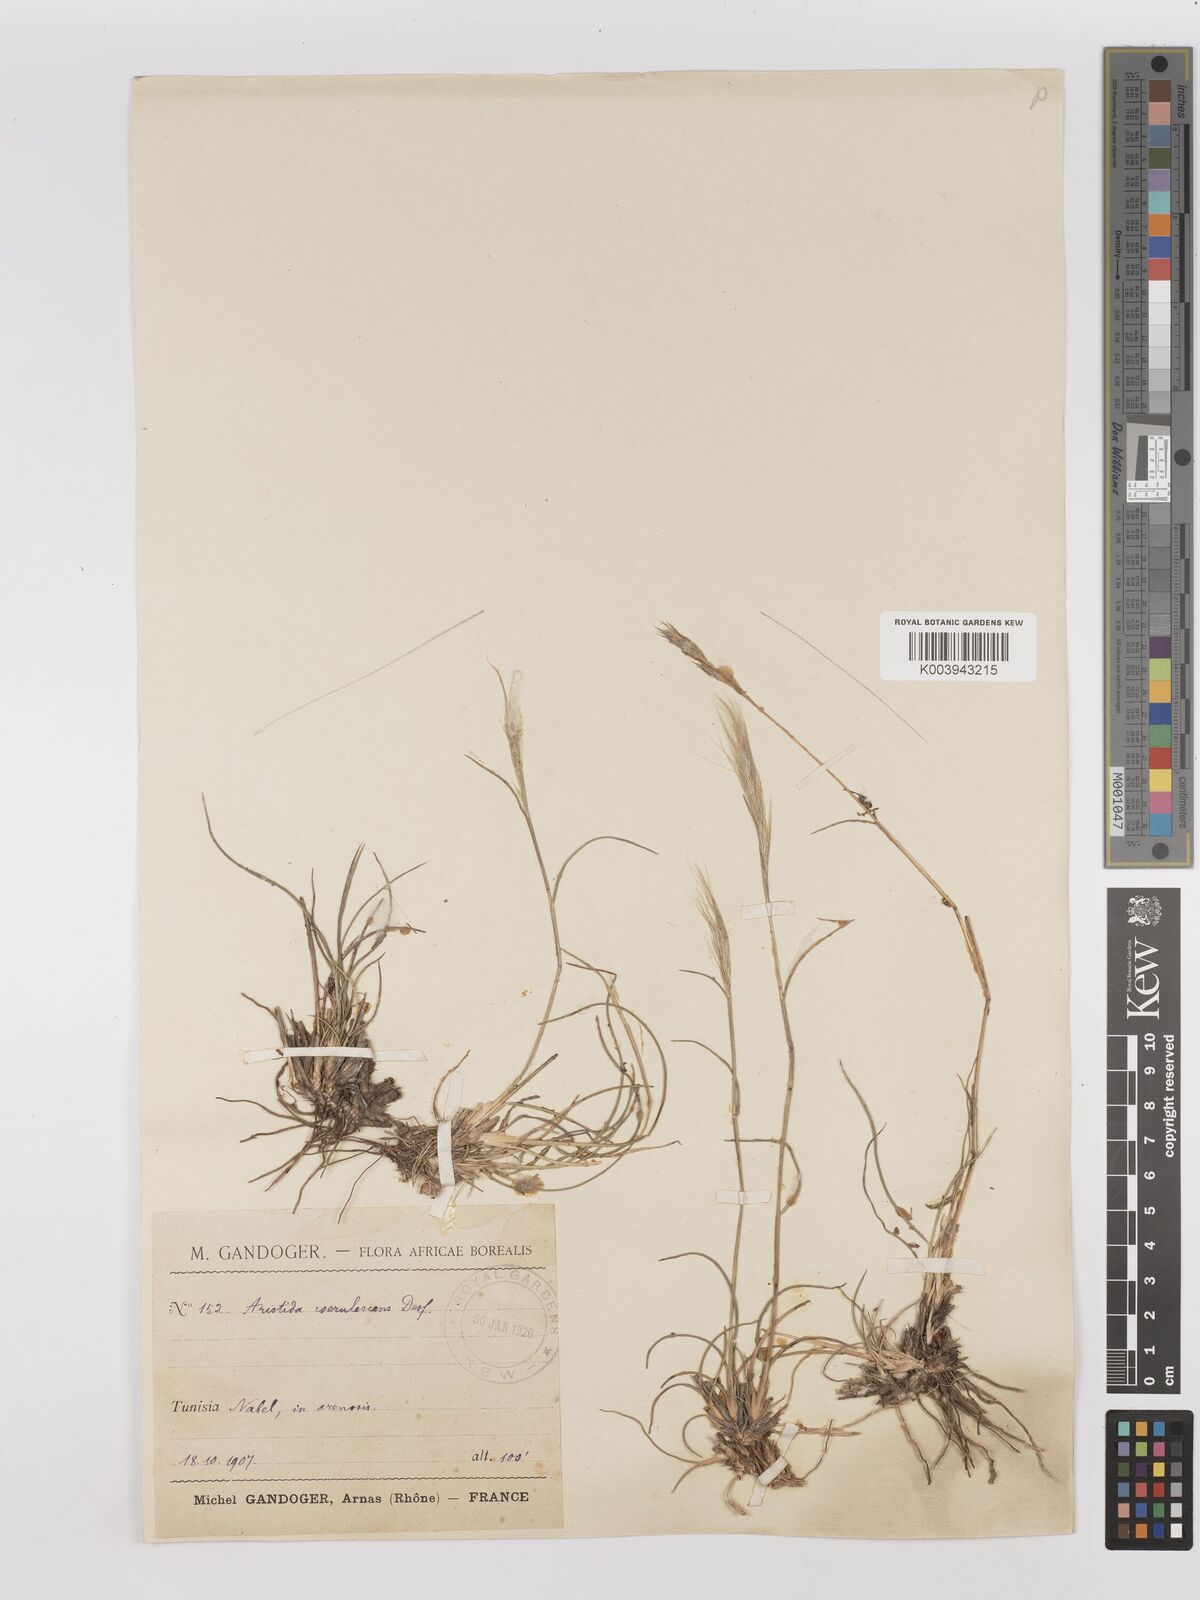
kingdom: Plantae
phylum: Tracheophyta
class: Liliopsida
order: Poales
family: Poaceae
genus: Aristida
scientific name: Aristida adscensionis
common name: Sixweeks threeawn
